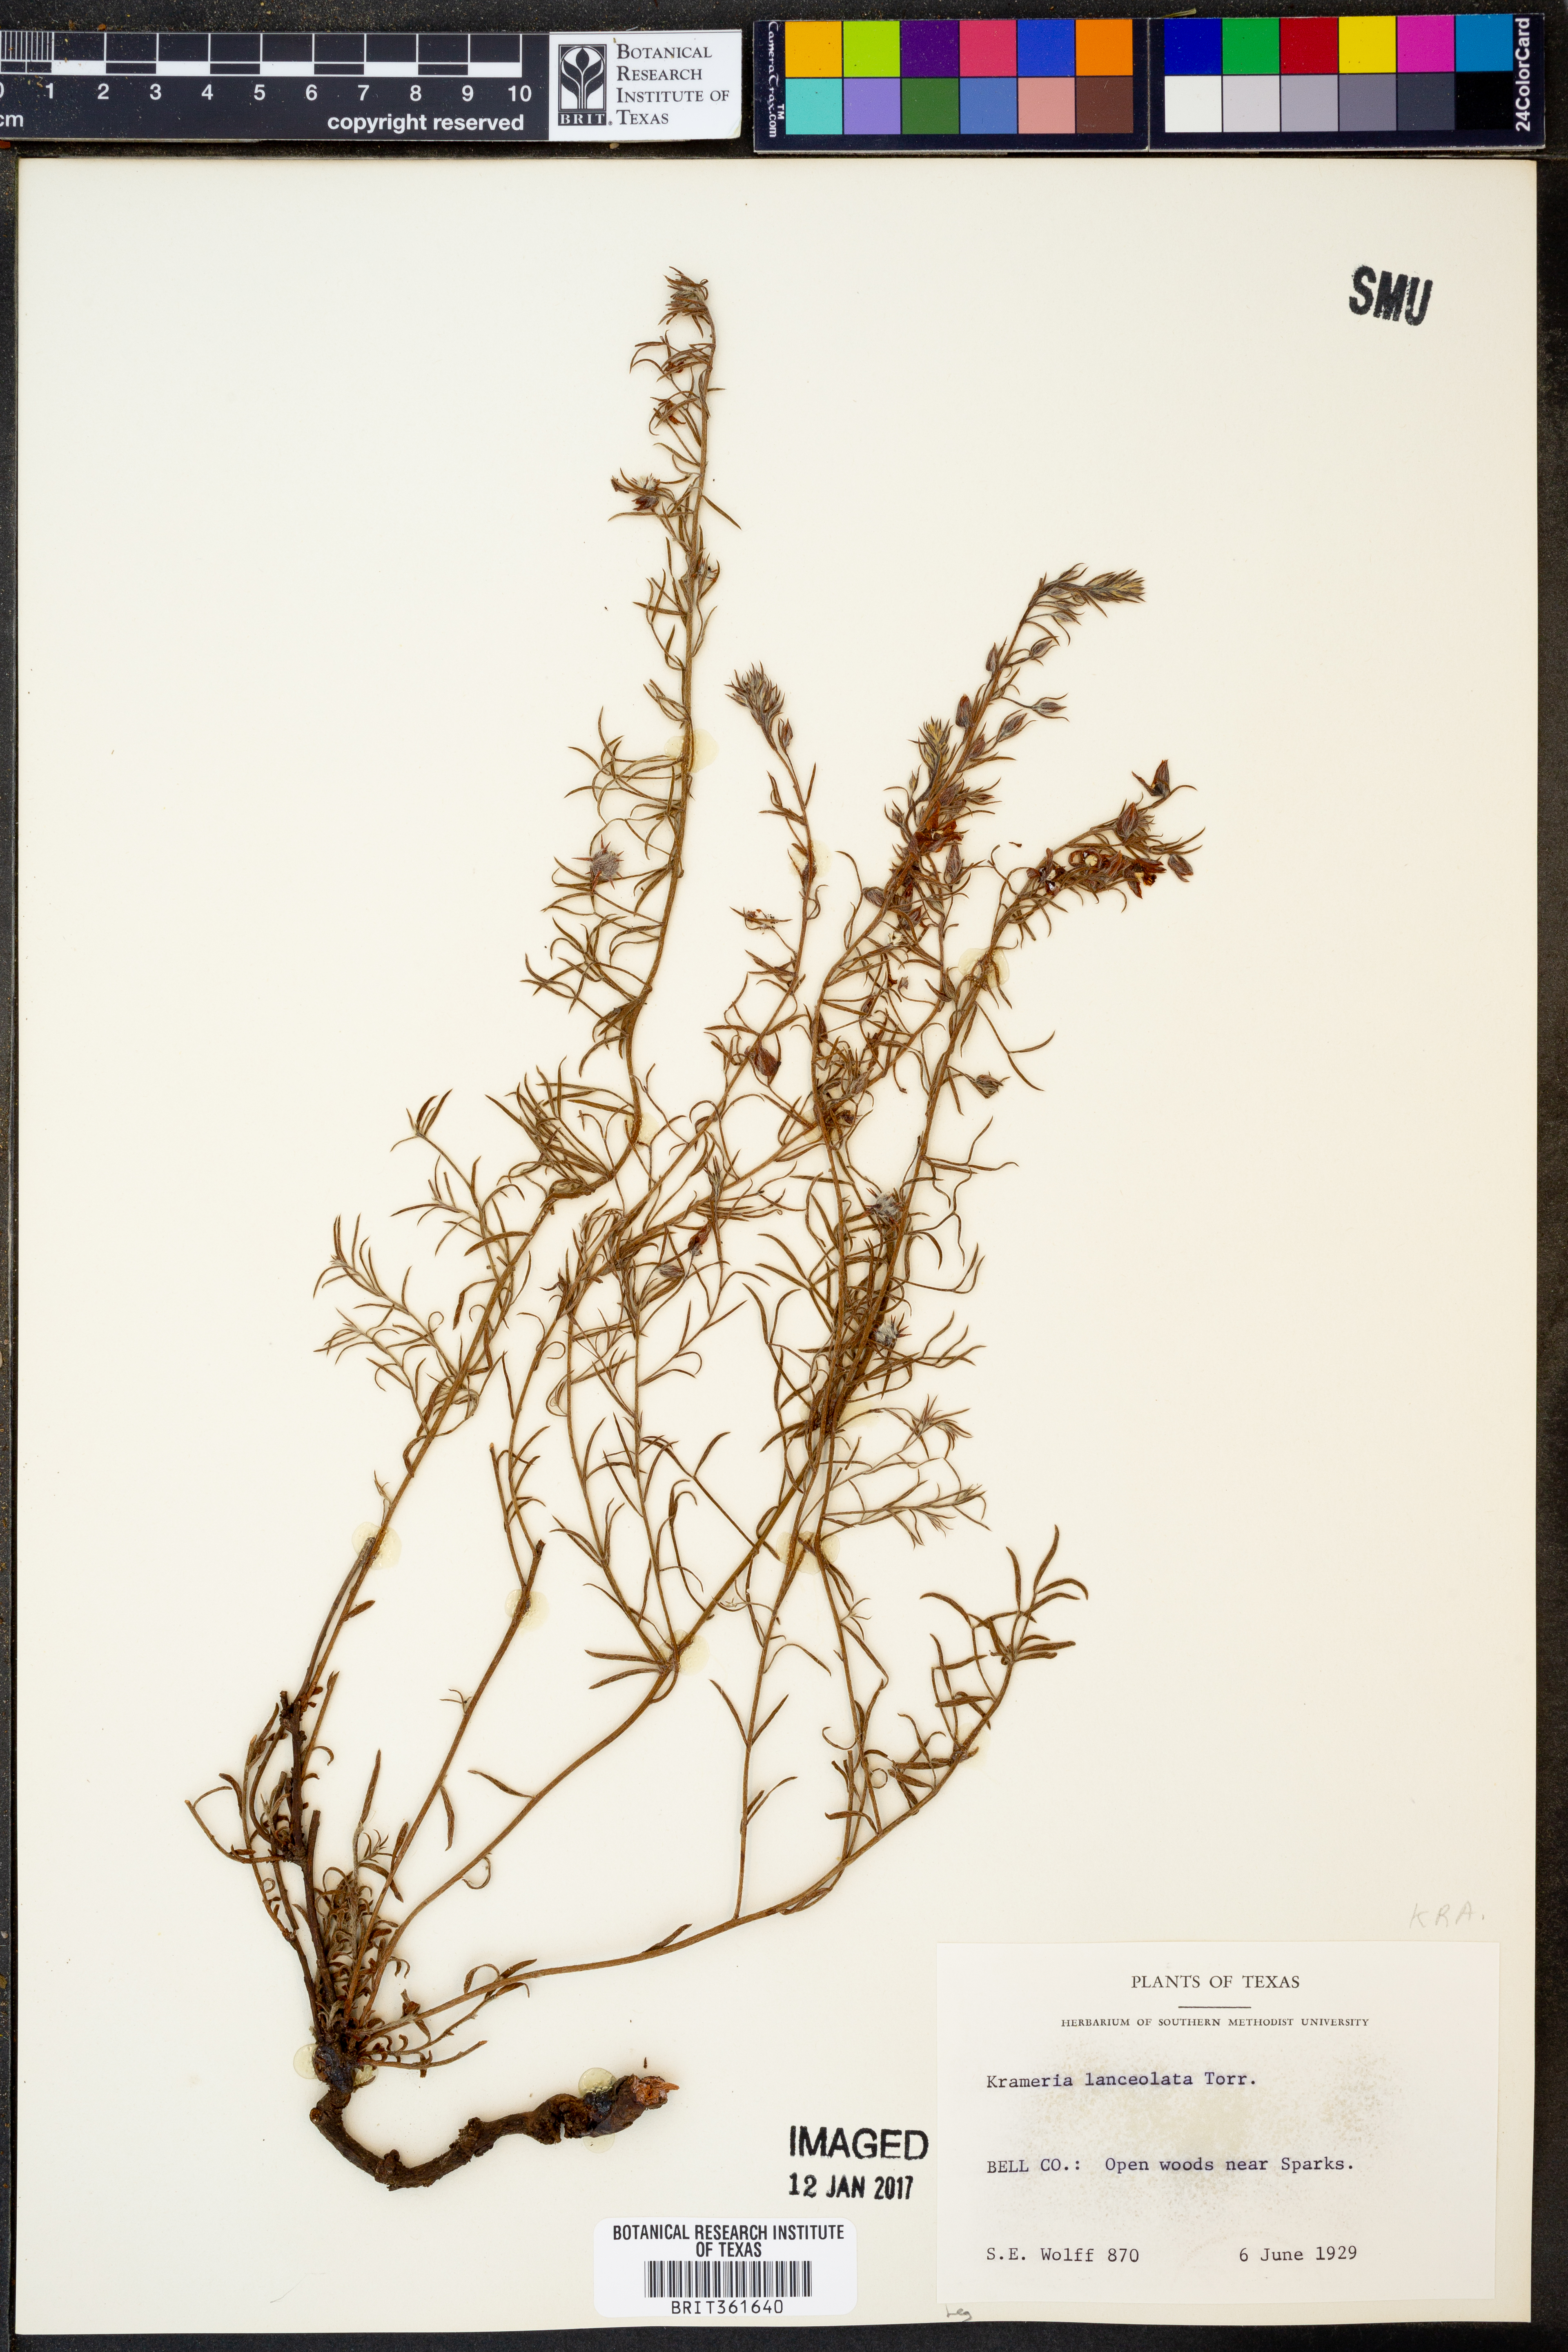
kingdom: Plantae
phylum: Tracheophyta
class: Magnoliopsida
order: Zygophyllales
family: Krameriaceae
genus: Krameria
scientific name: Krameria lanceolata
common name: Ratany
